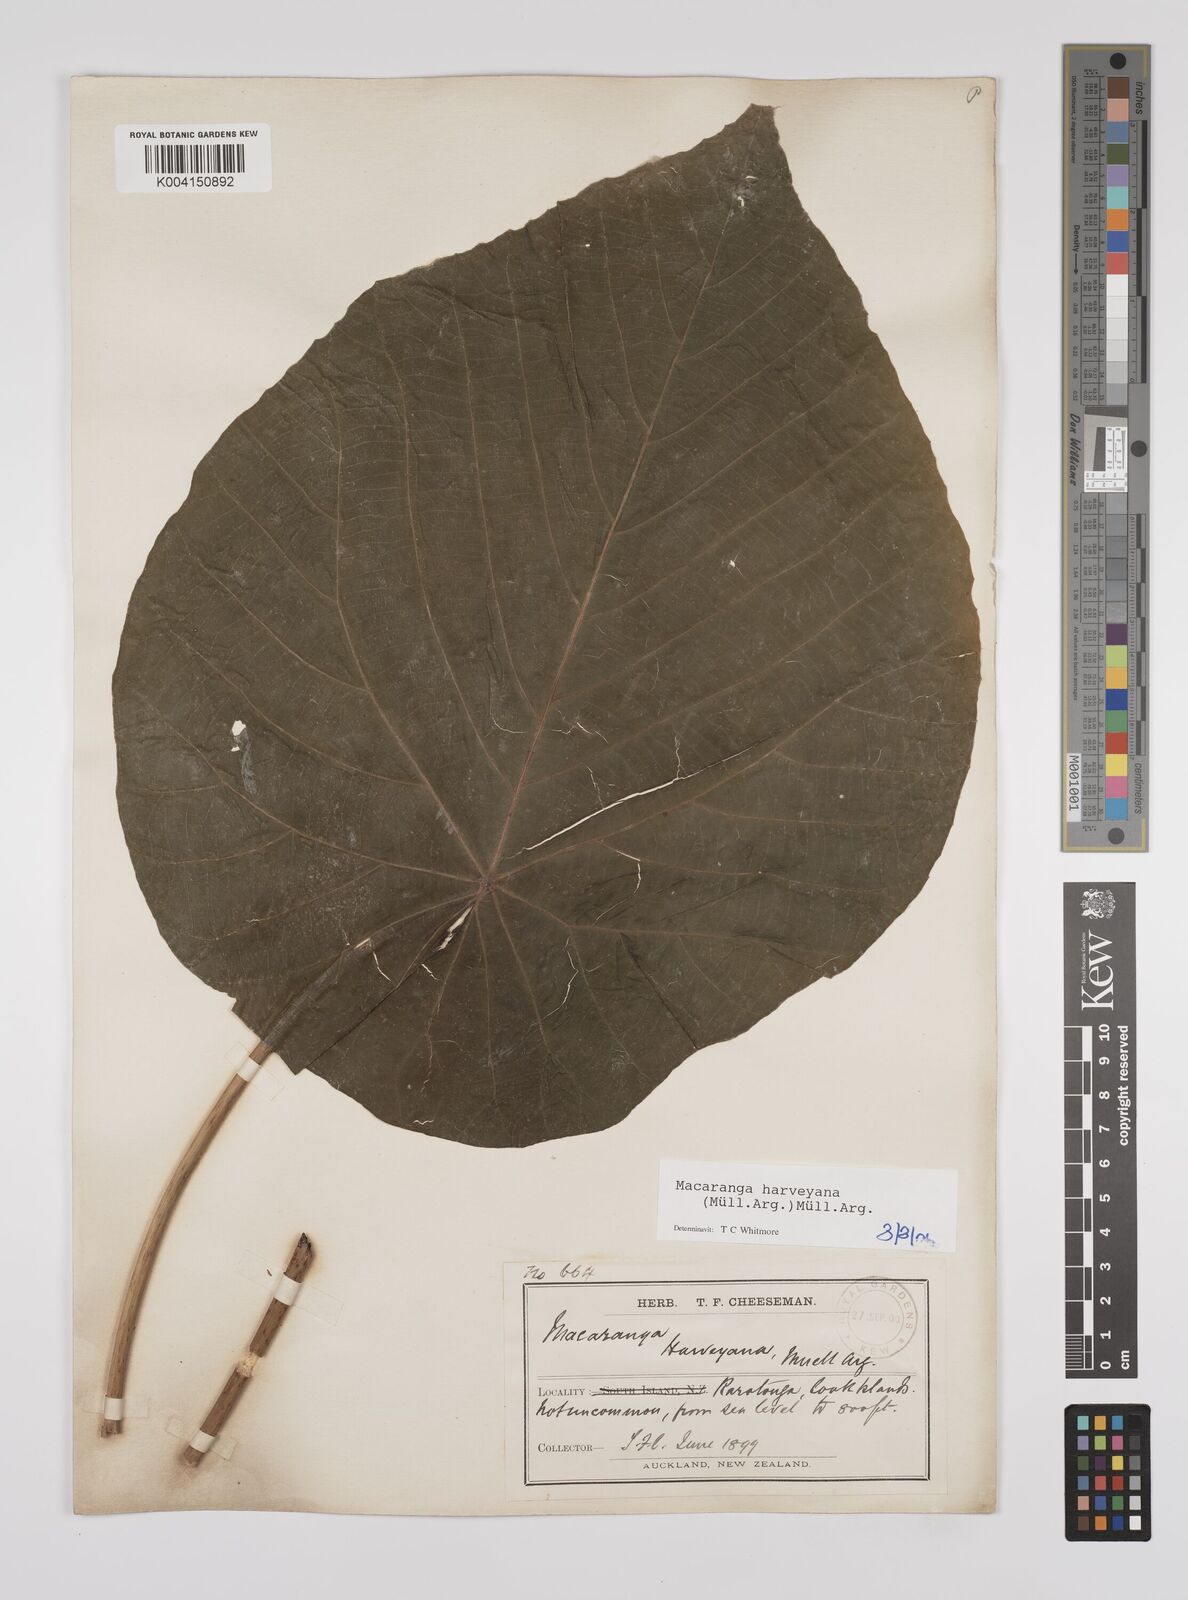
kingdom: Plantae
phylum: Tracheophyta
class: Magnoliopsida
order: Malpighiales
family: Euphorbiaceae
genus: Macaranga
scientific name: Macaranga harveyana
